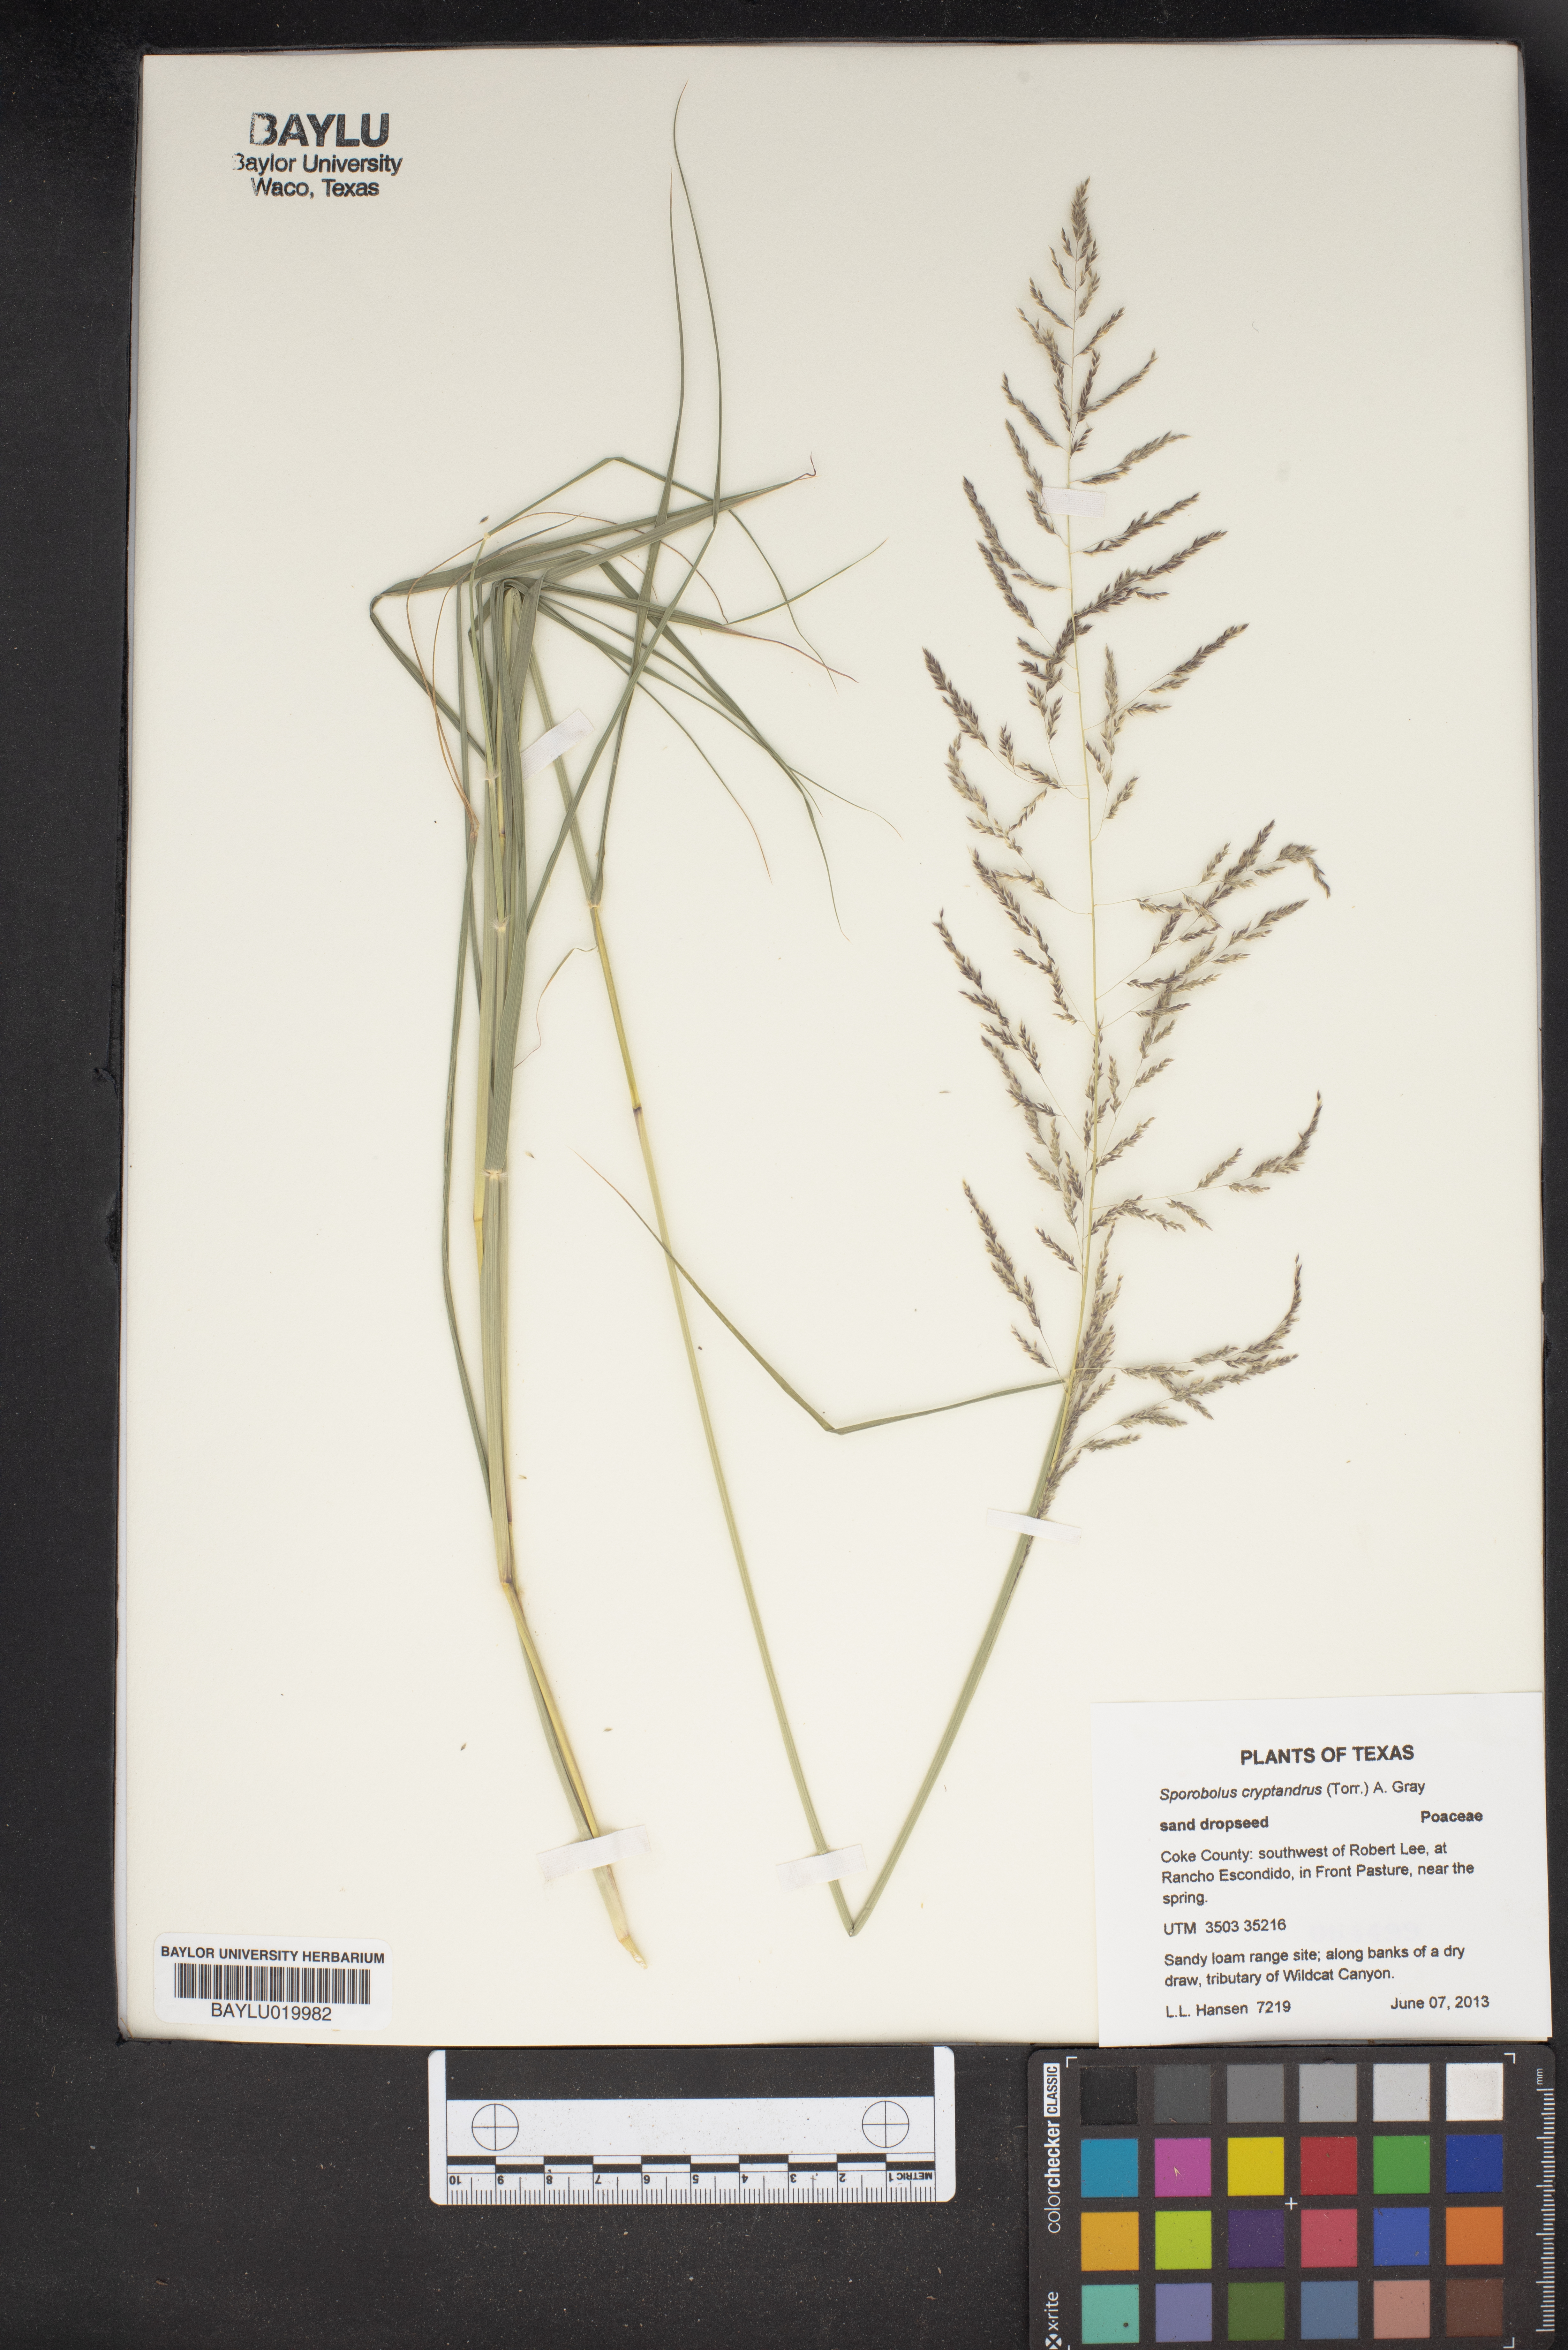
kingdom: Plantae
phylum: Tracheophyta
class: Liliopsida
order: Poales
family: Poaceae
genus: Sporobolus
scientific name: Sporobolus
